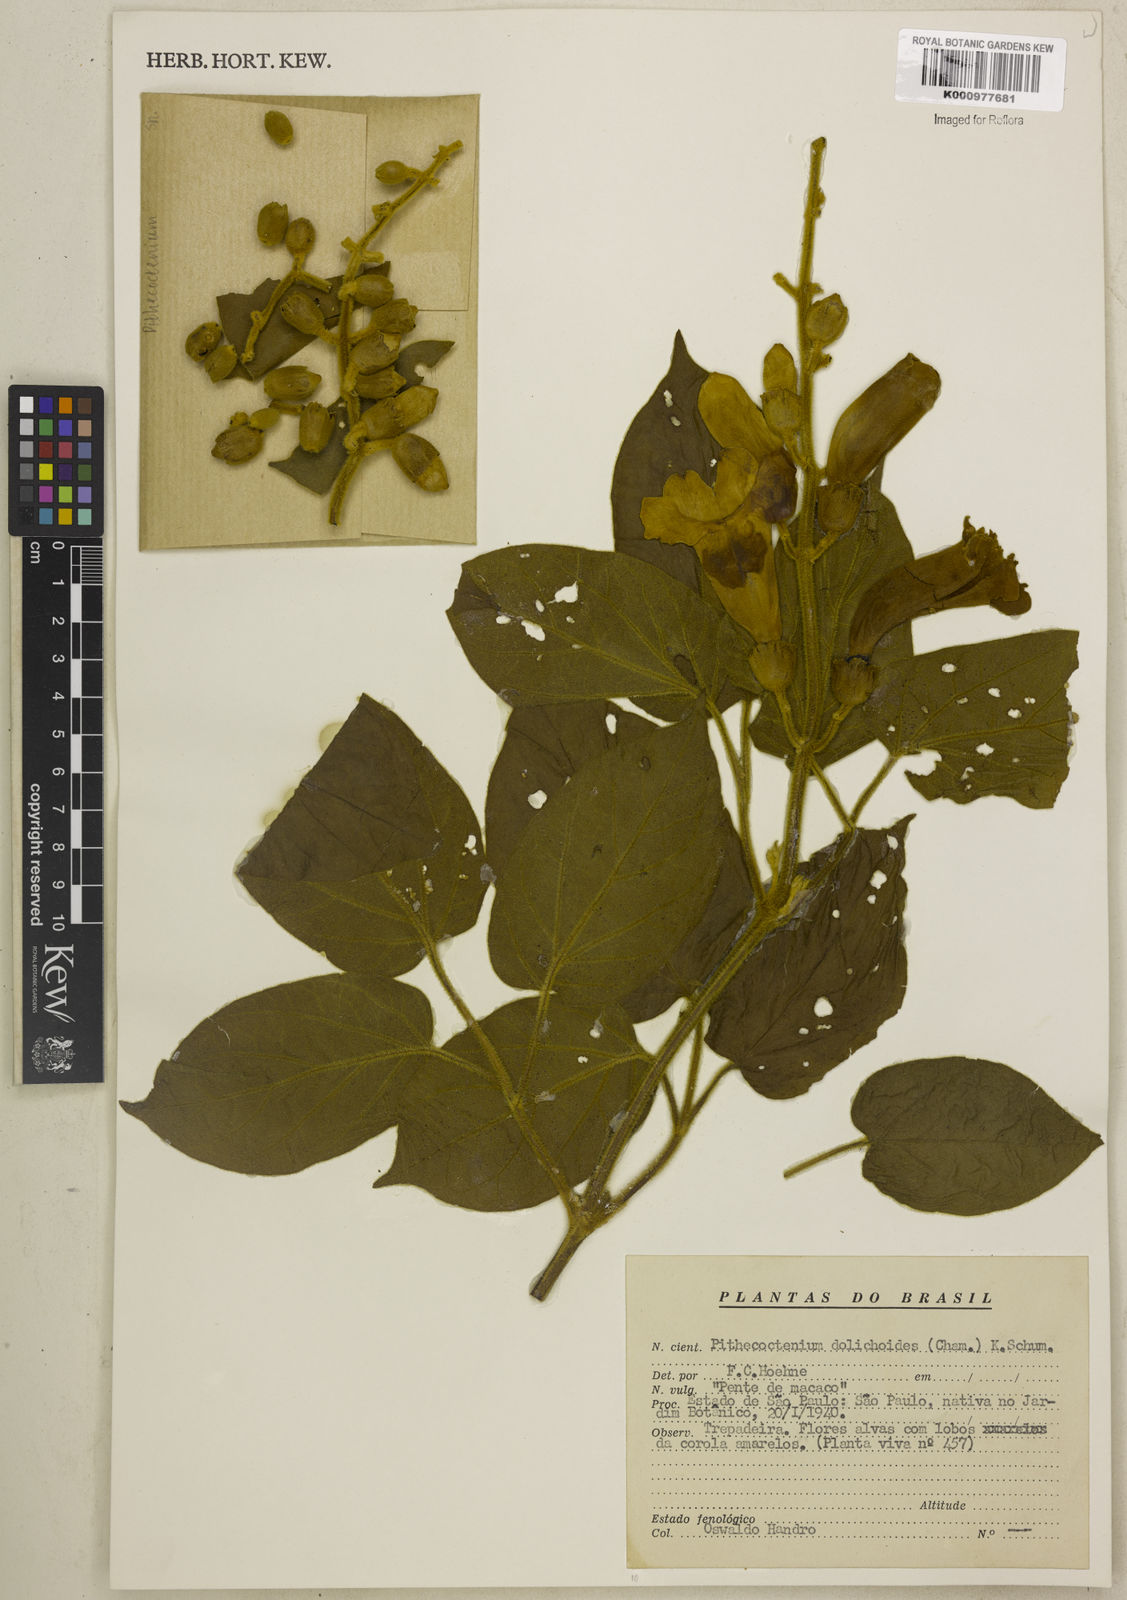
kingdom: Plantae
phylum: Tracheophyta
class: Magnoliopsida
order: Lamiales
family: Bignoniaceae
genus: Amphilophium
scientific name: Amphilophium dolichoides
